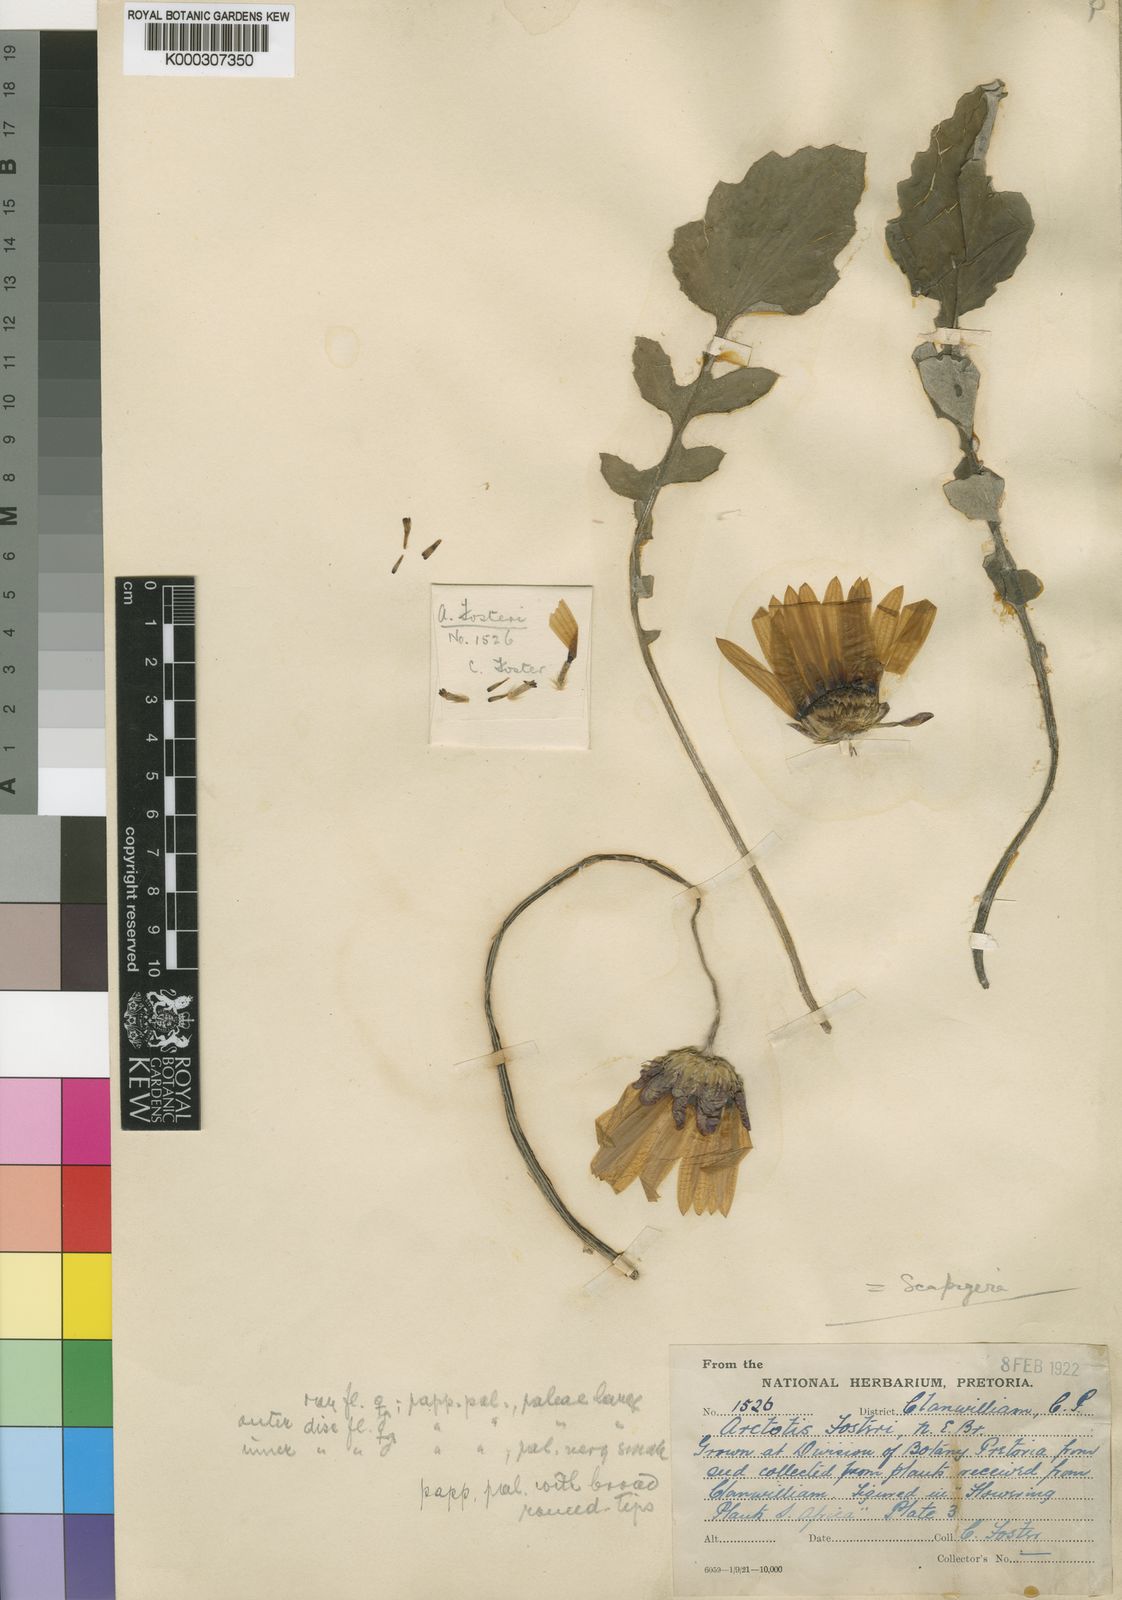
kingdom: Plantae
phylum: Tracheophyta
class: Magnoliopsida
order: Asterales
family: Asteraceae
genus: Arctotis
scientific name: Arctotis
